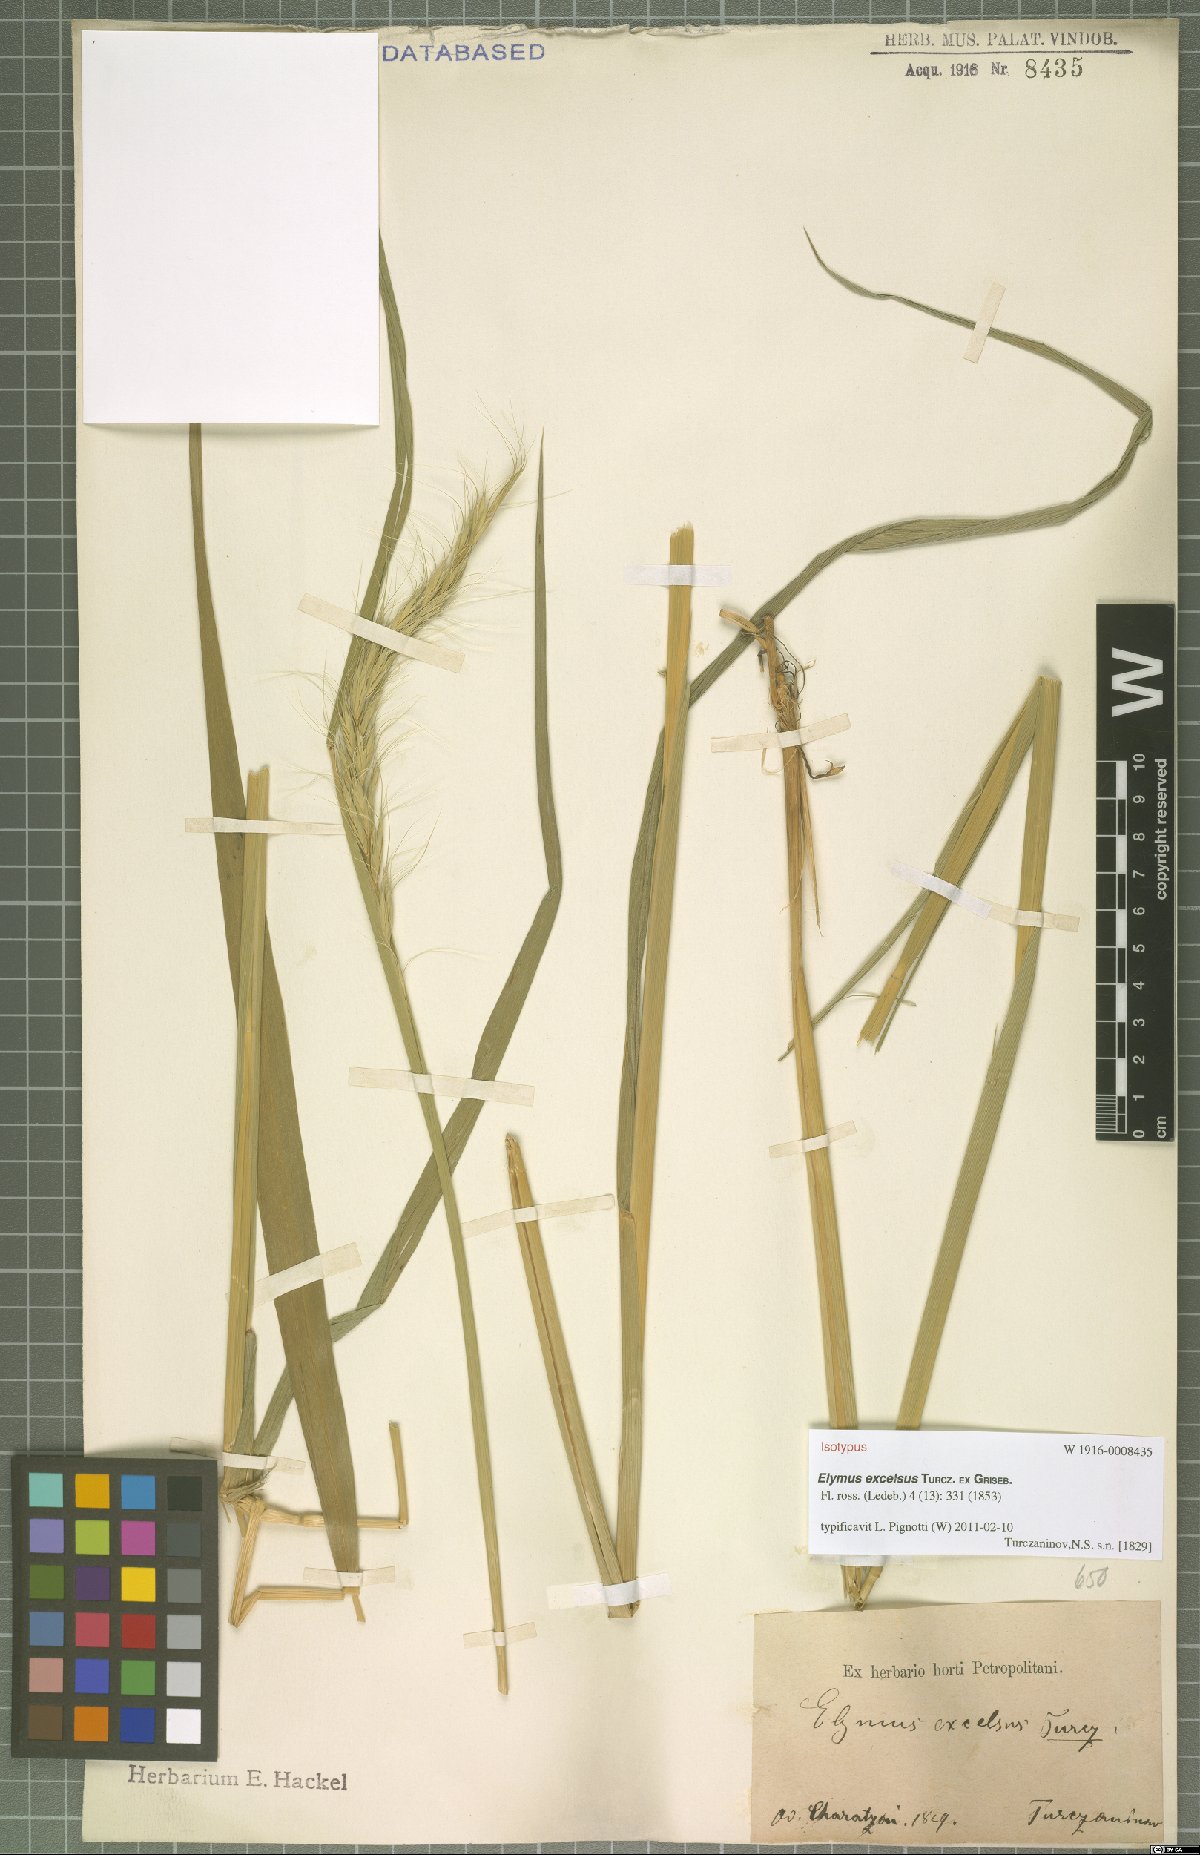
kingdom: Plantae
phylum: Tracheophyta
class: Liliopsida
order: Poales
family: Poaceae
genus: Elymus
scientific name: Elymus dahuricus
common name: Dahurian wild rye
